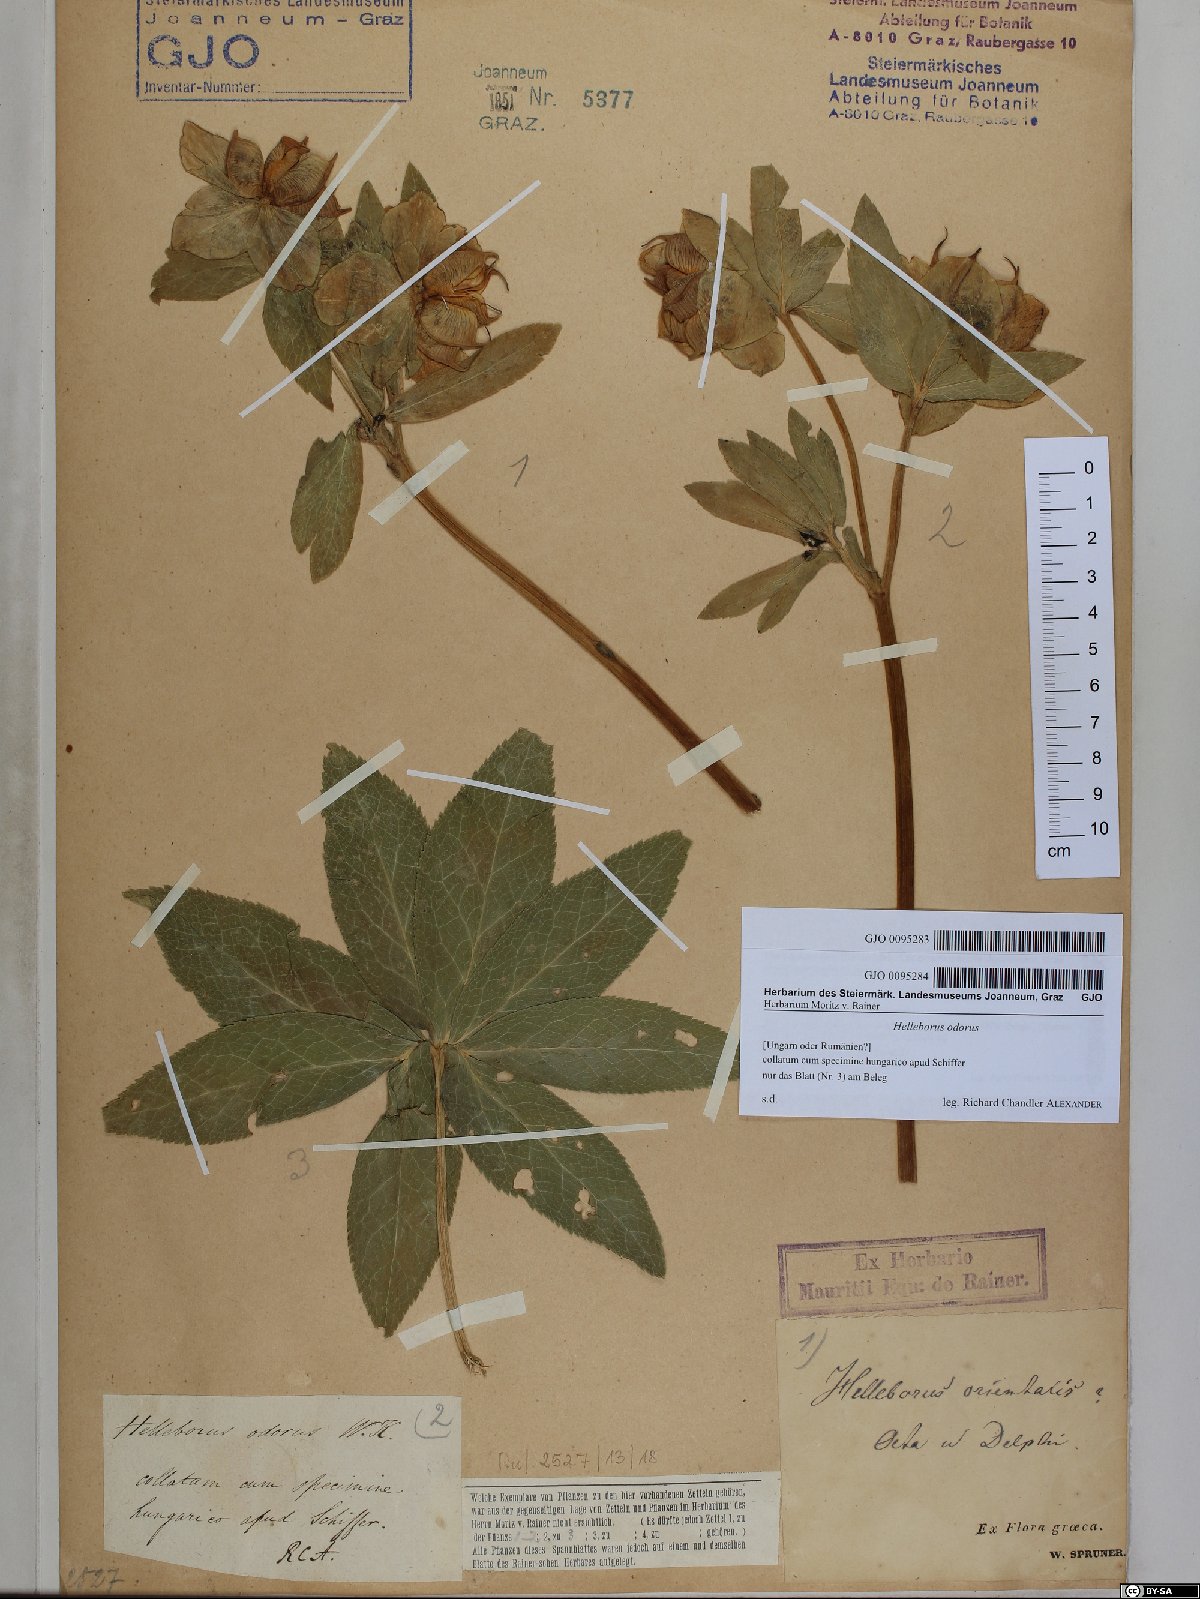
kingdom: Plantae
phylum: Tracheophyta
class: Magnoliopsida
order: Ranunculales
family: Ranunculaceae
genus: Helleborus
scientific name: Helleborus orientalis
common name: Lenten-rose
